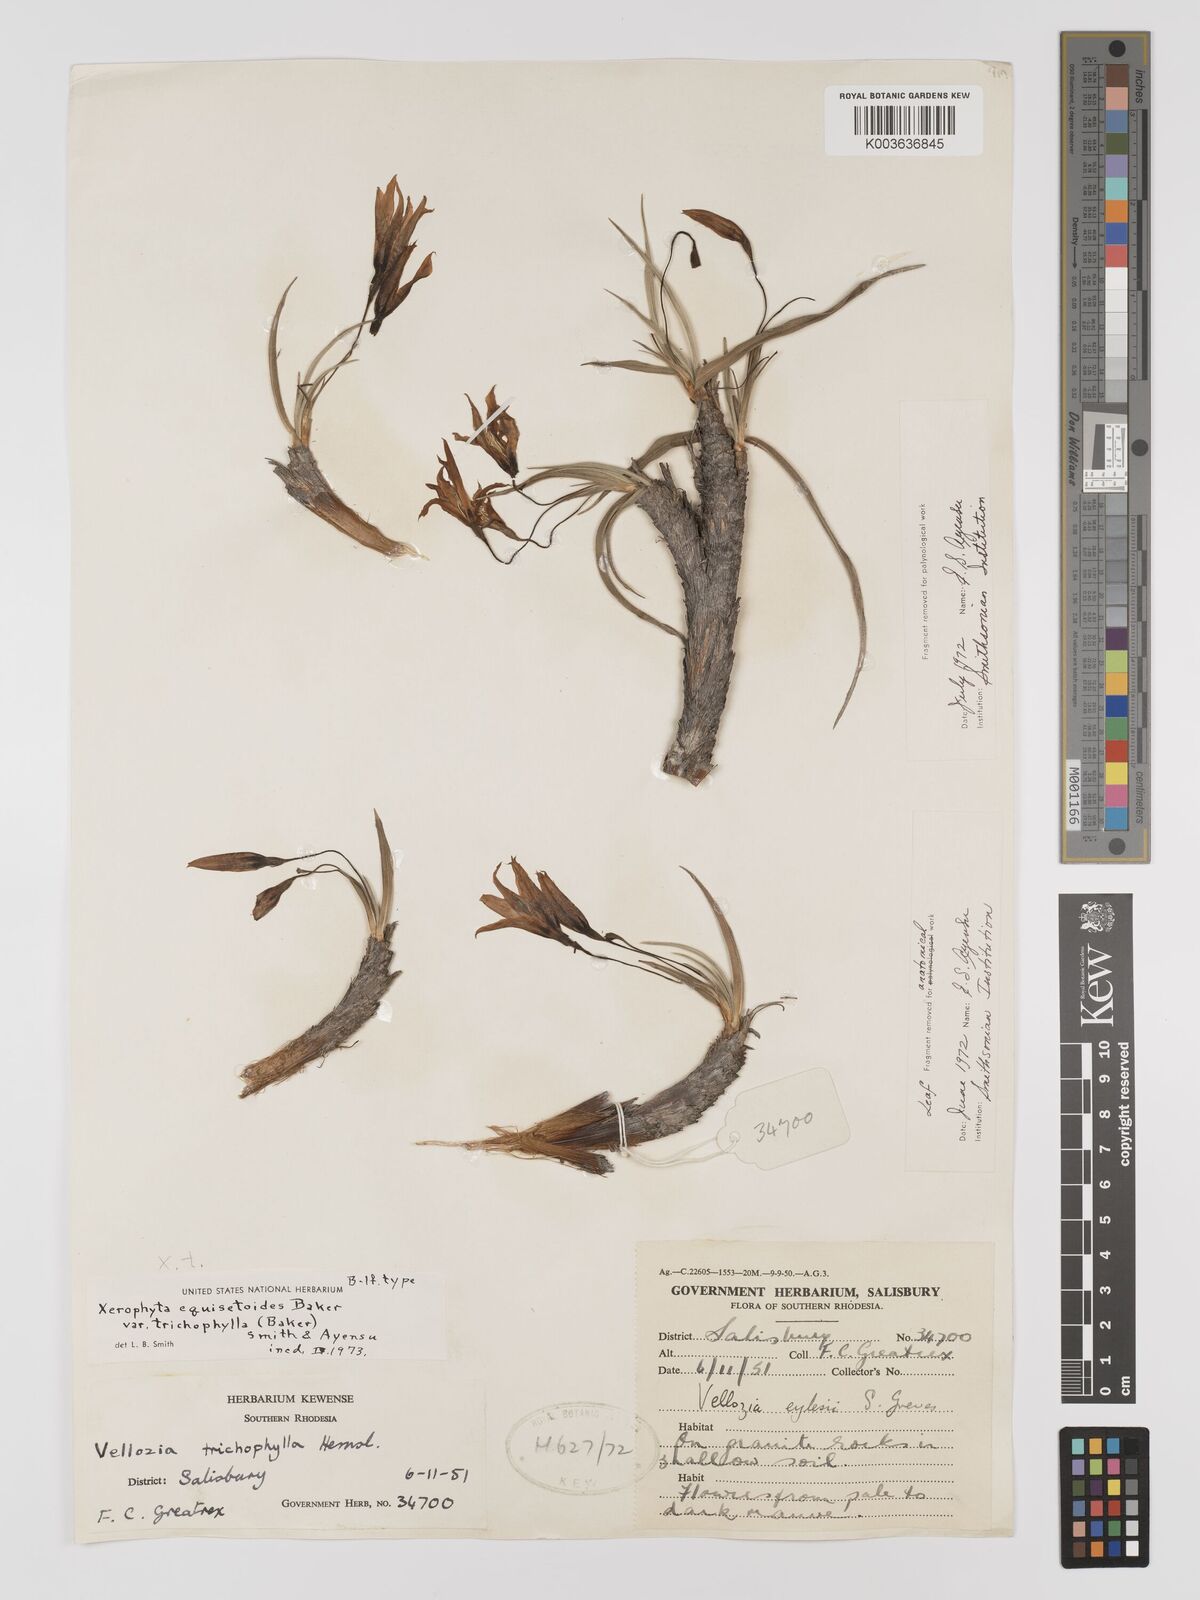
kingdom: Plantae
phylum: Tracheophyta
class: Liliopsida
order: Pandanales
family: Velloziaceae
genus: Xerophyta
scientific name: Xerophyta trichophylla
